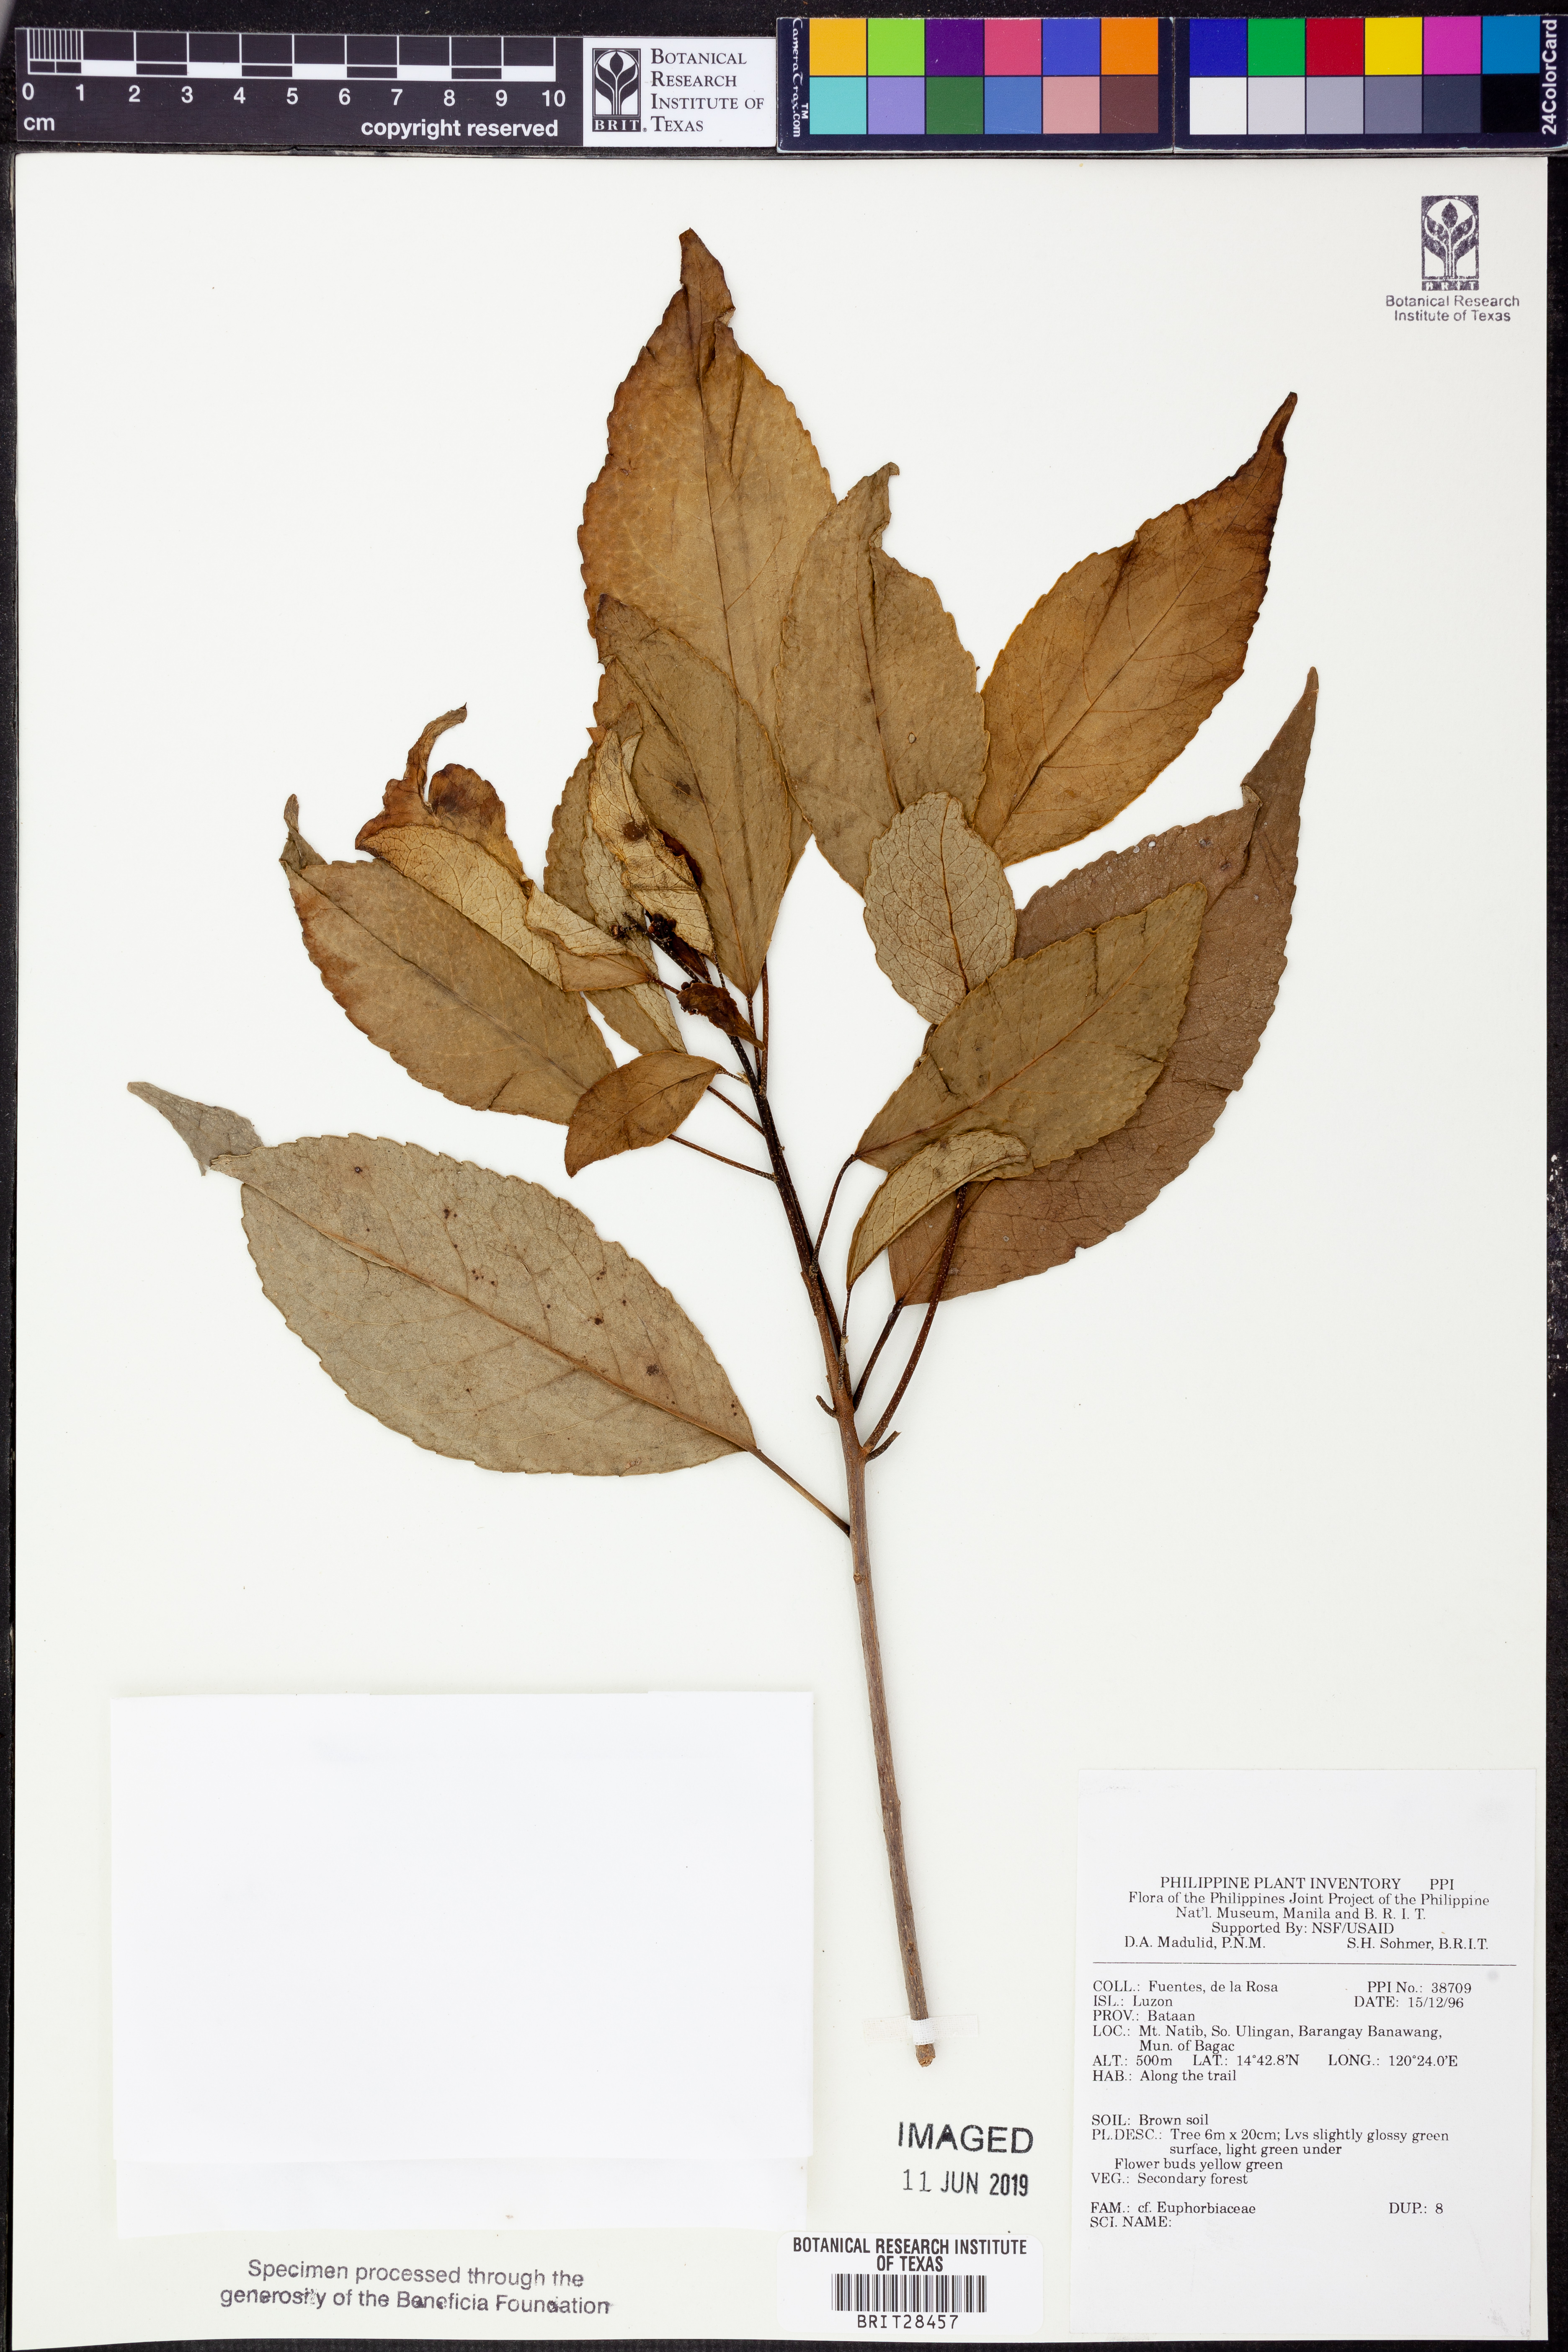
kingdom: Plantae
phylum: Tracheophyta
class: Magnoliopsida
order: Malpighiales
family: Euphorbiaceae
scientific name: Euphorbiaceae
